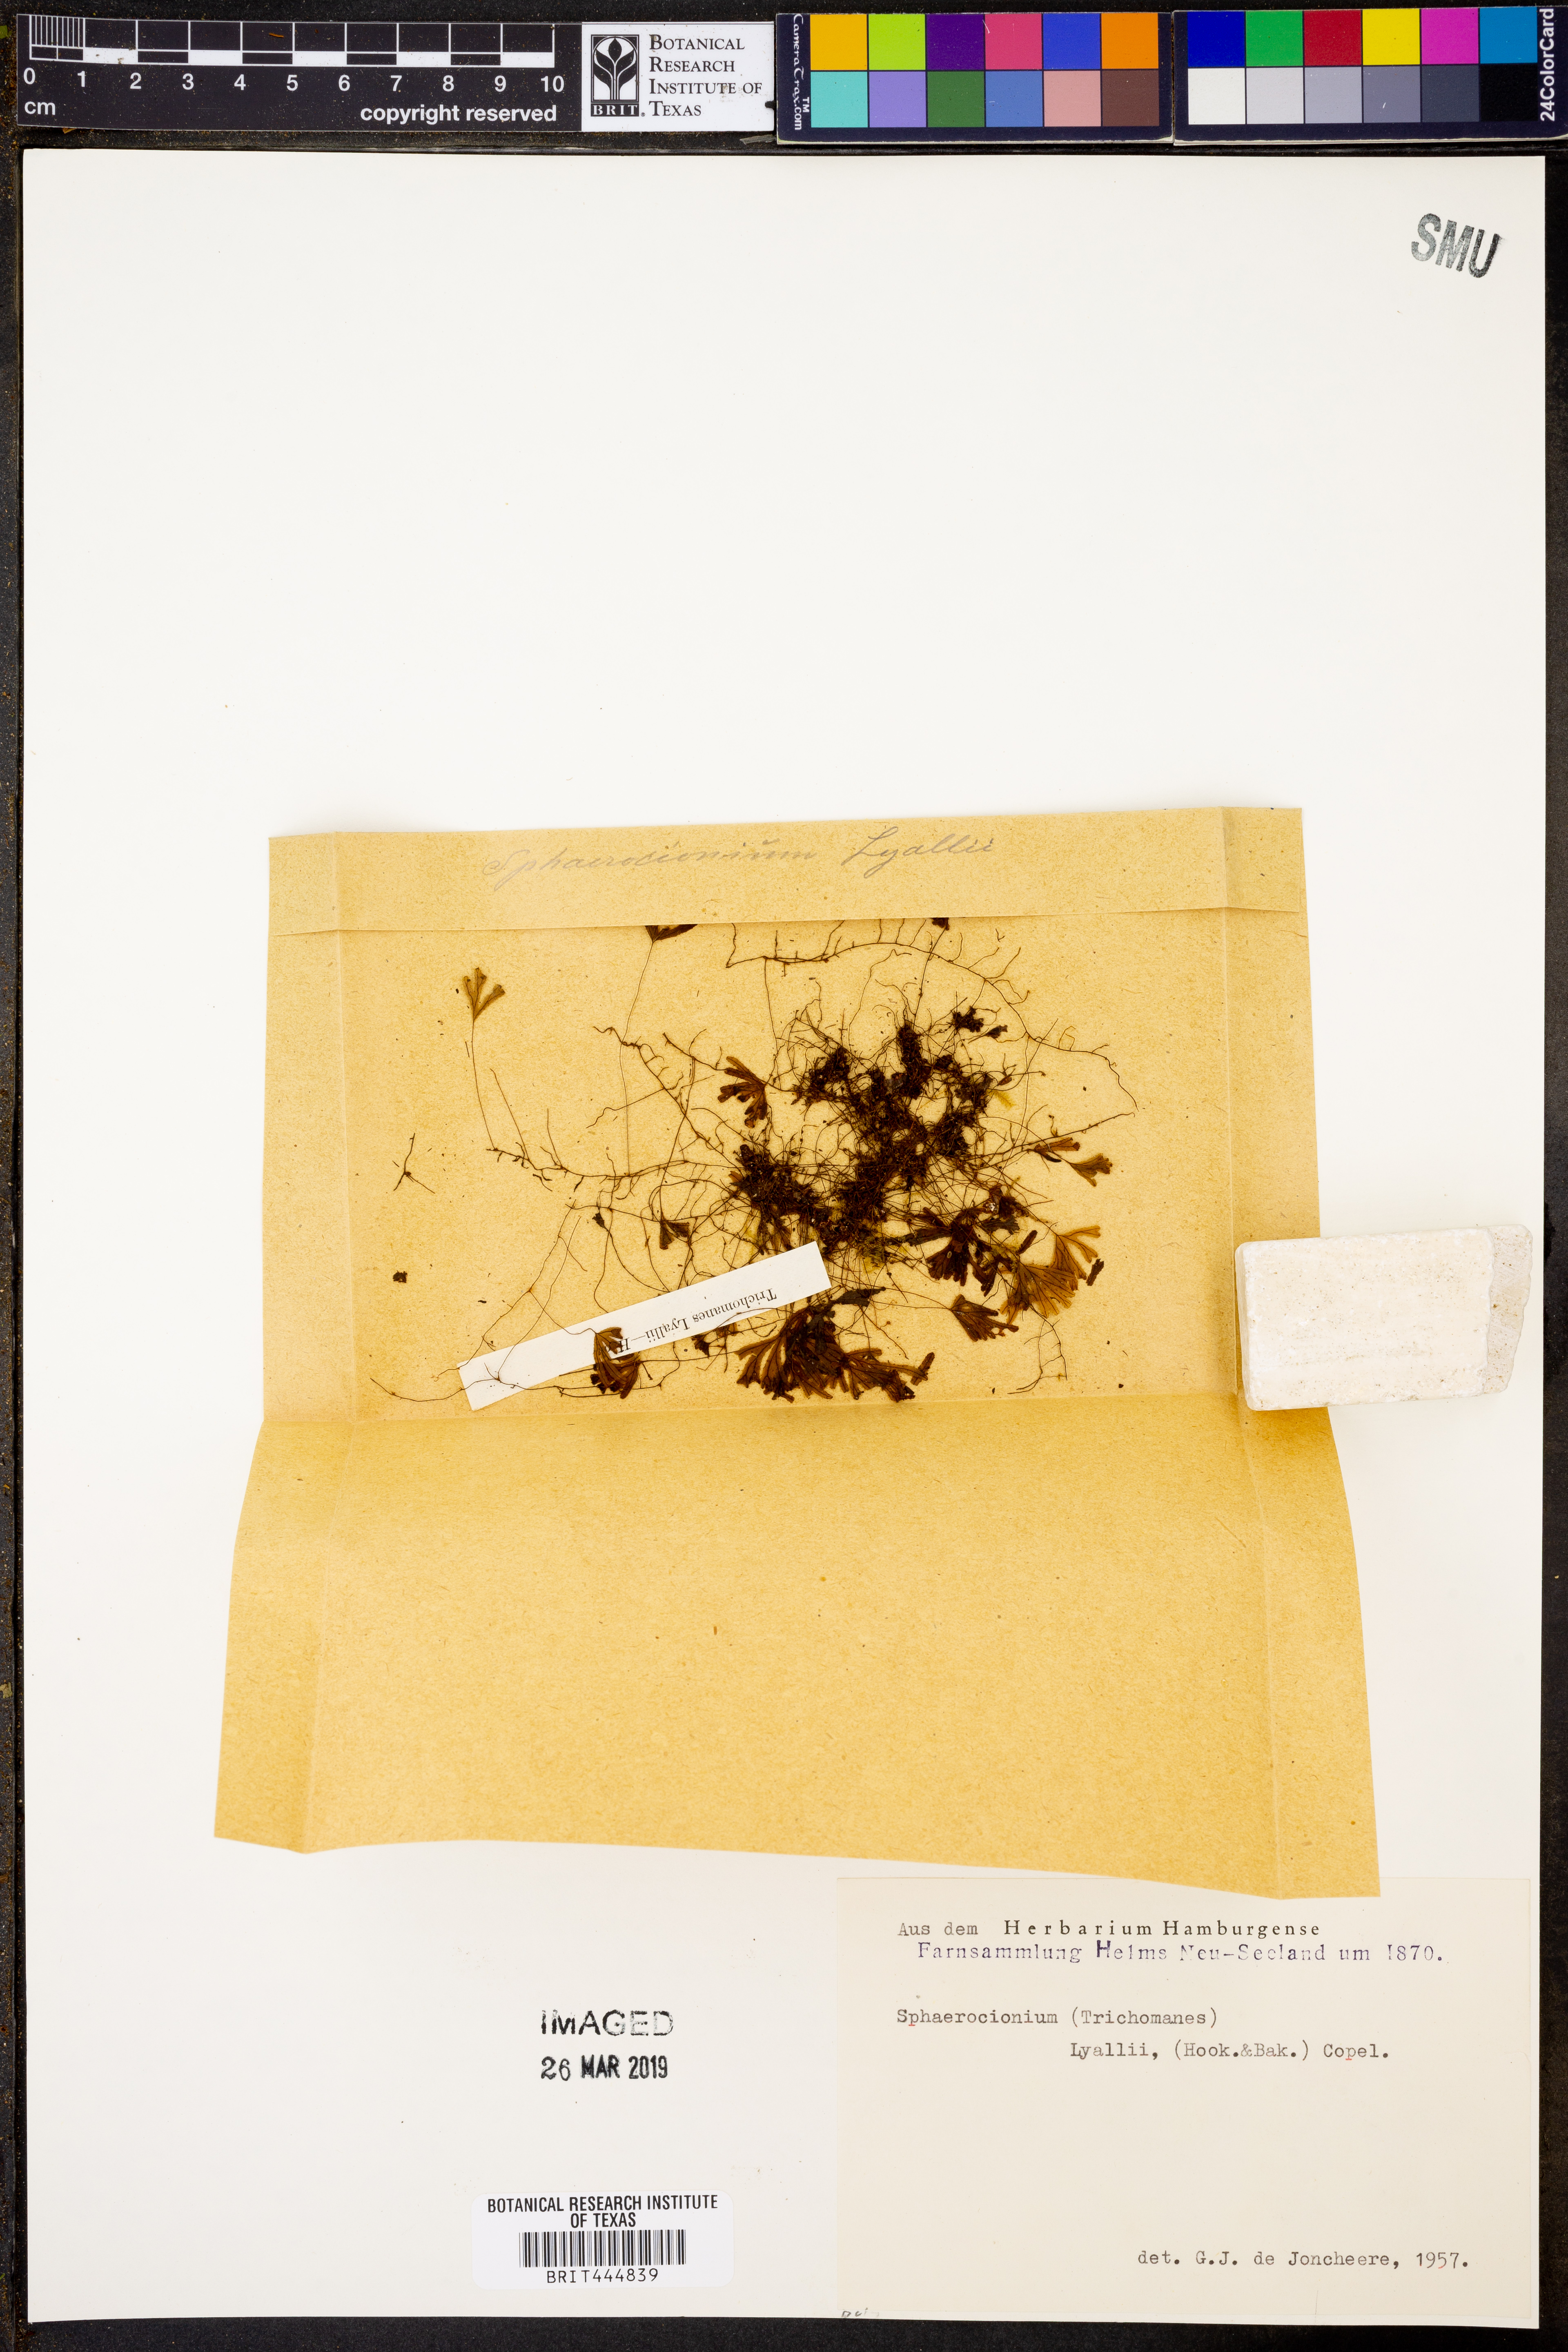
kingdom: Plantae
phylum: Tracheophyta
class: Polypodiopsida
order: Hymenophyllales
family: Hymenophyllaceae
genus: Hymenophyllum
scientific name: Hymenophyllum lyallii
